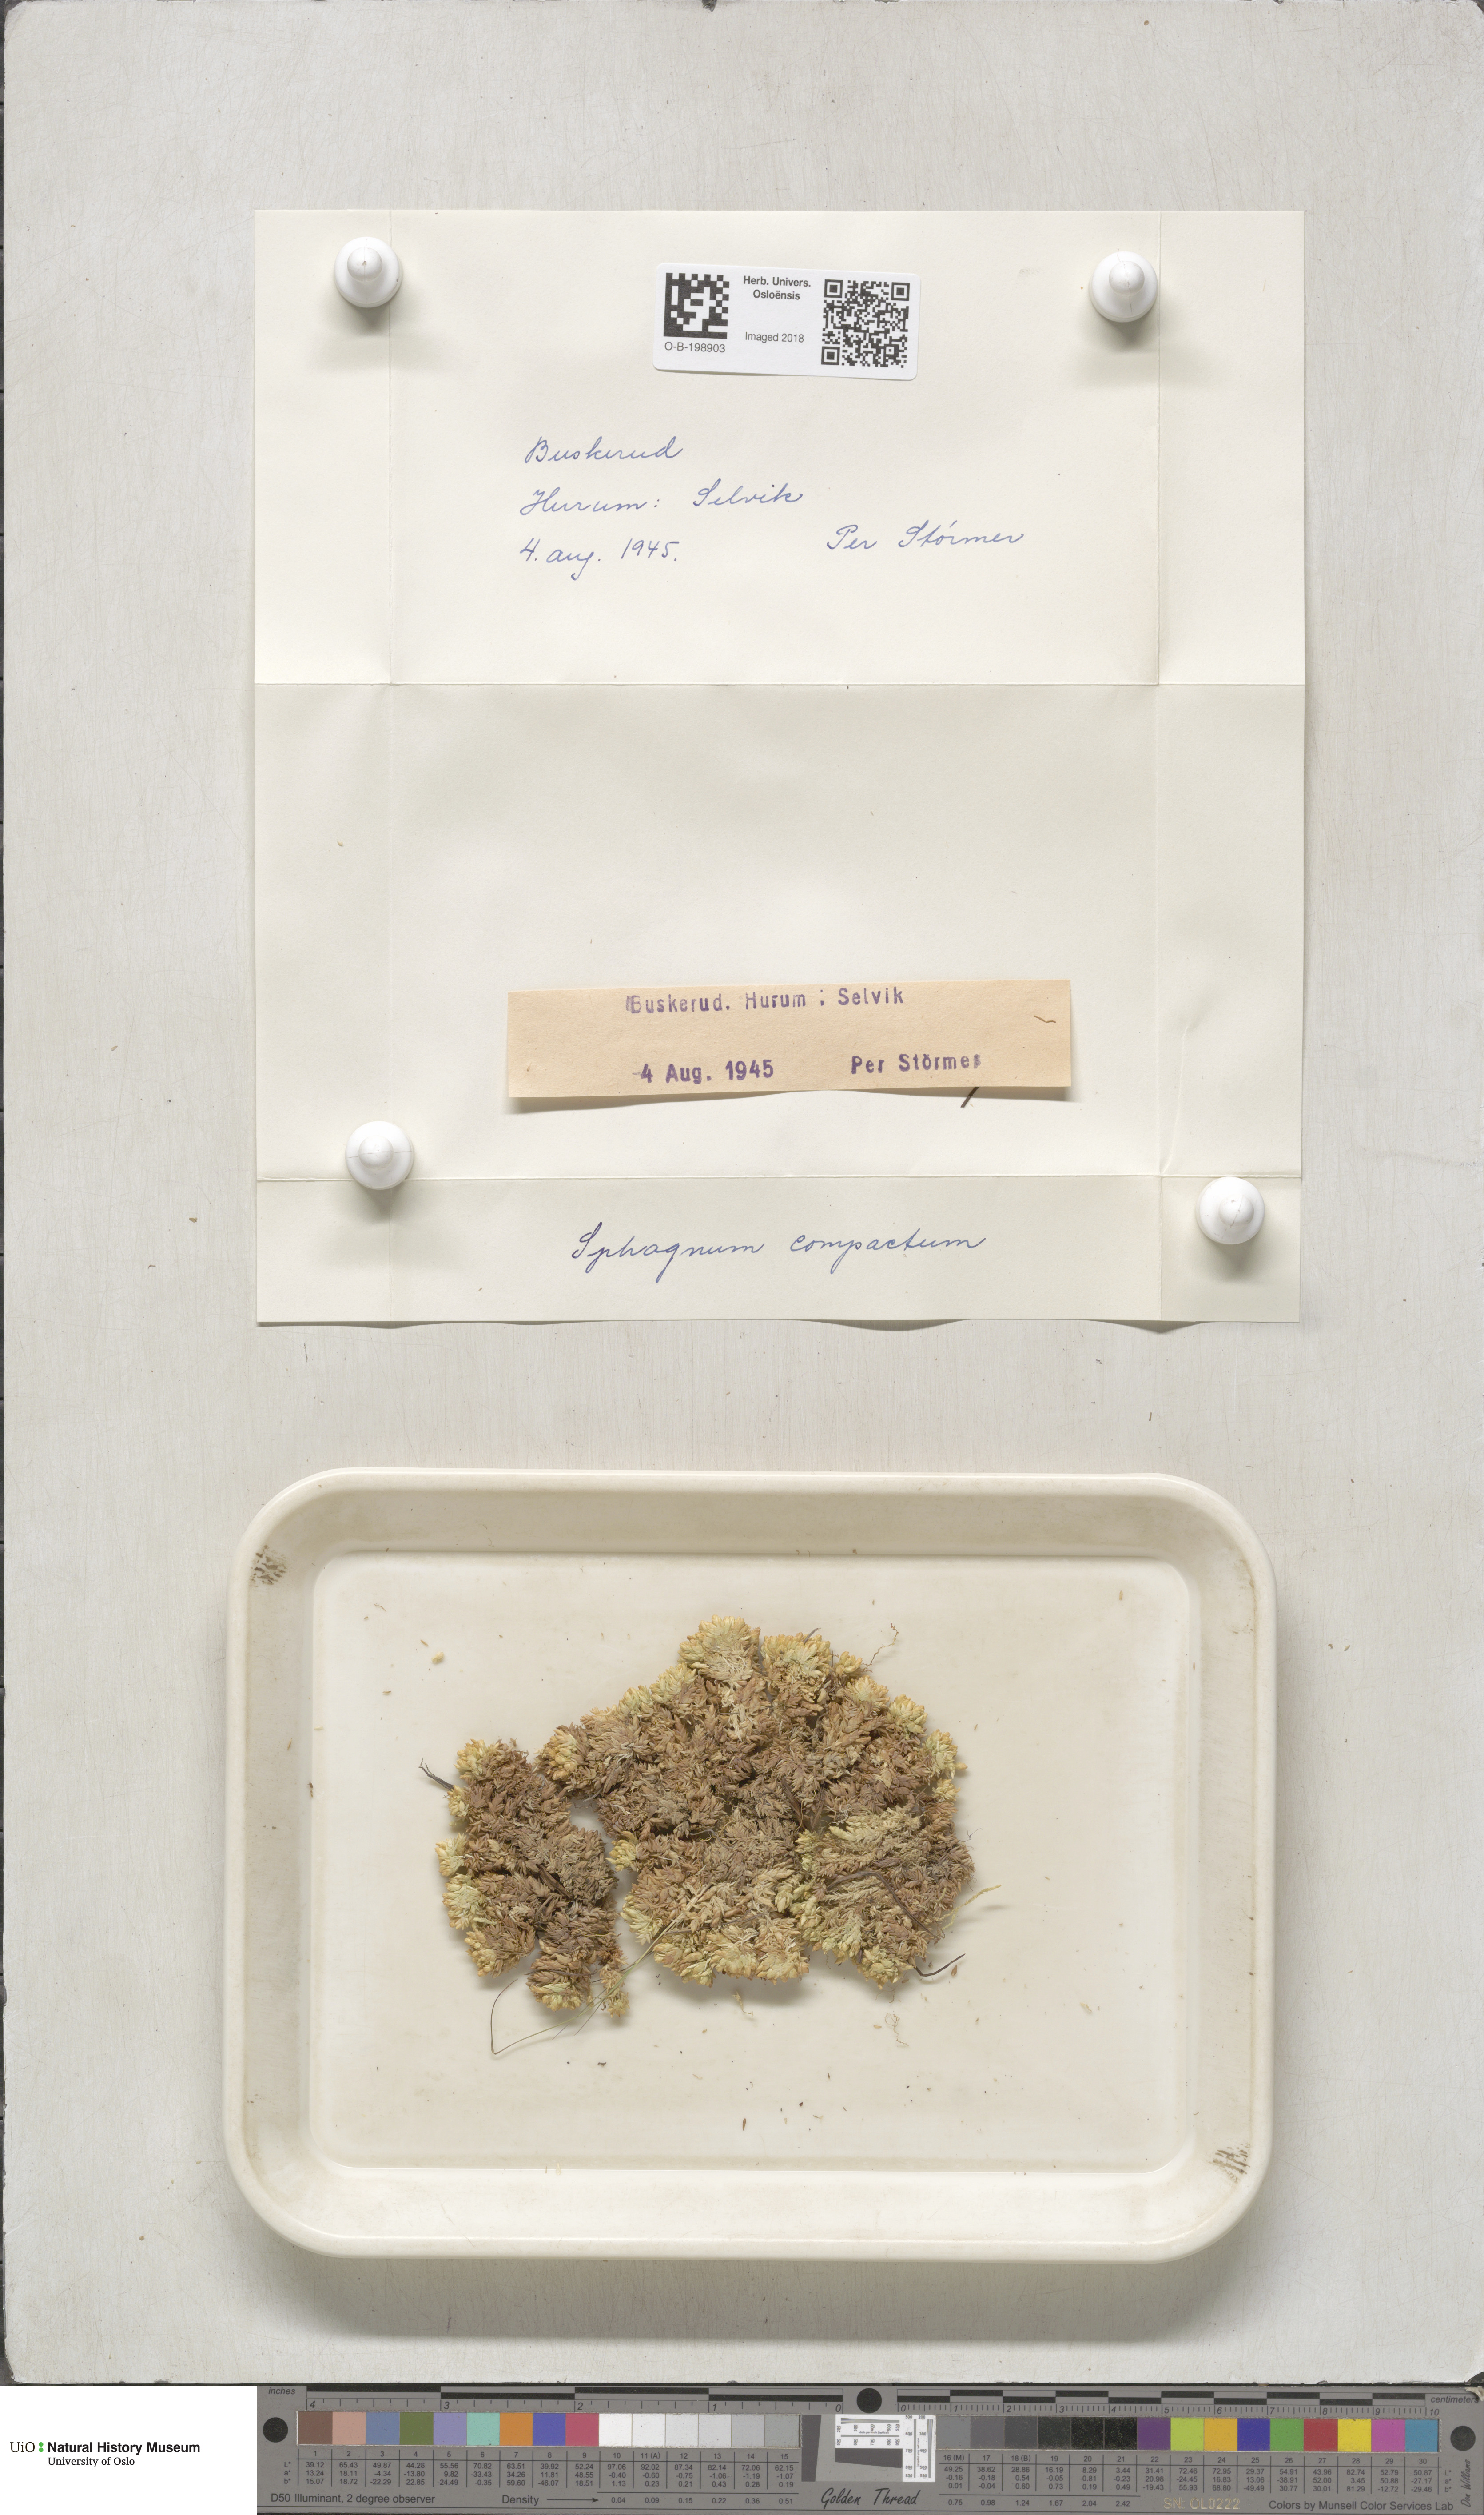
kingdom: Plantae
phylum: Bryophyta
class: Sphagnopsida
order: Sphagnales
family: Sphagnaceae
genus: Sphagnum
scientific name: Sphagnum compactum
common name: Compact peat moss
